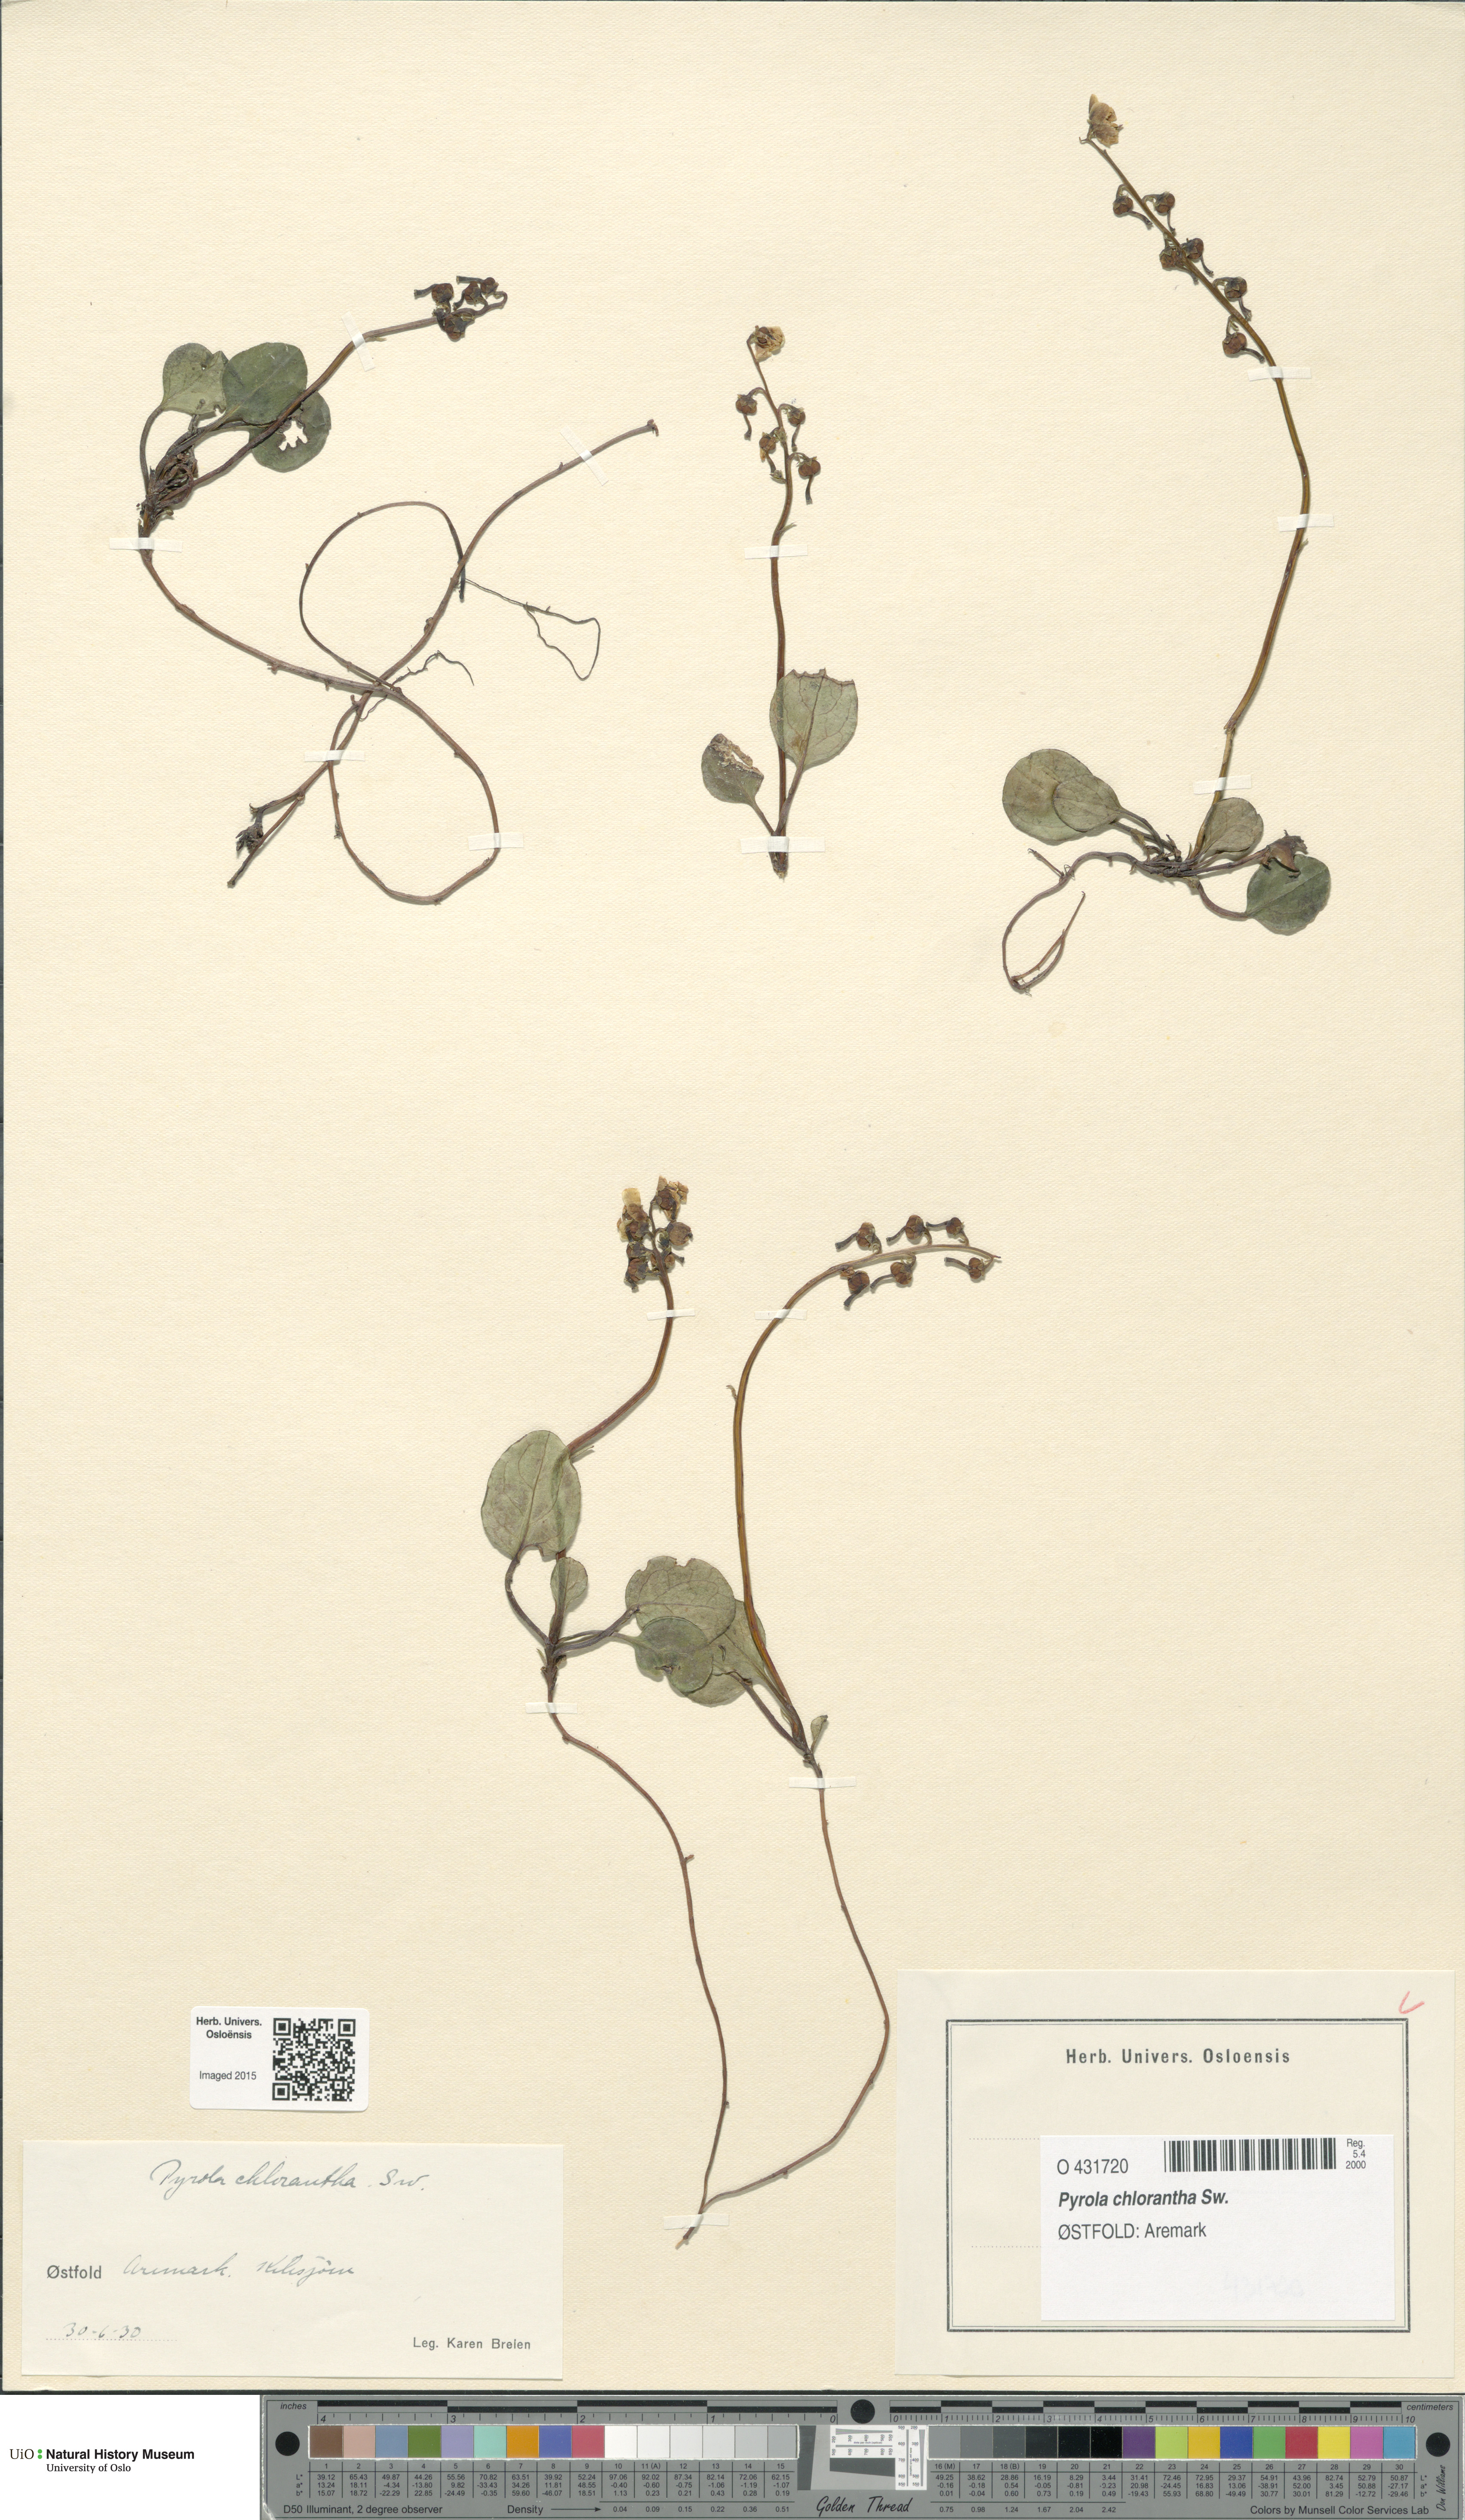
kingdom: Plantae
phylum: Tracheophyta
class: Magnoliopsida
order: Ericales
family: Ericaceae
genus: Pyrola
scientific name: Pyrola chlorantha
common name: Green wintergreen
